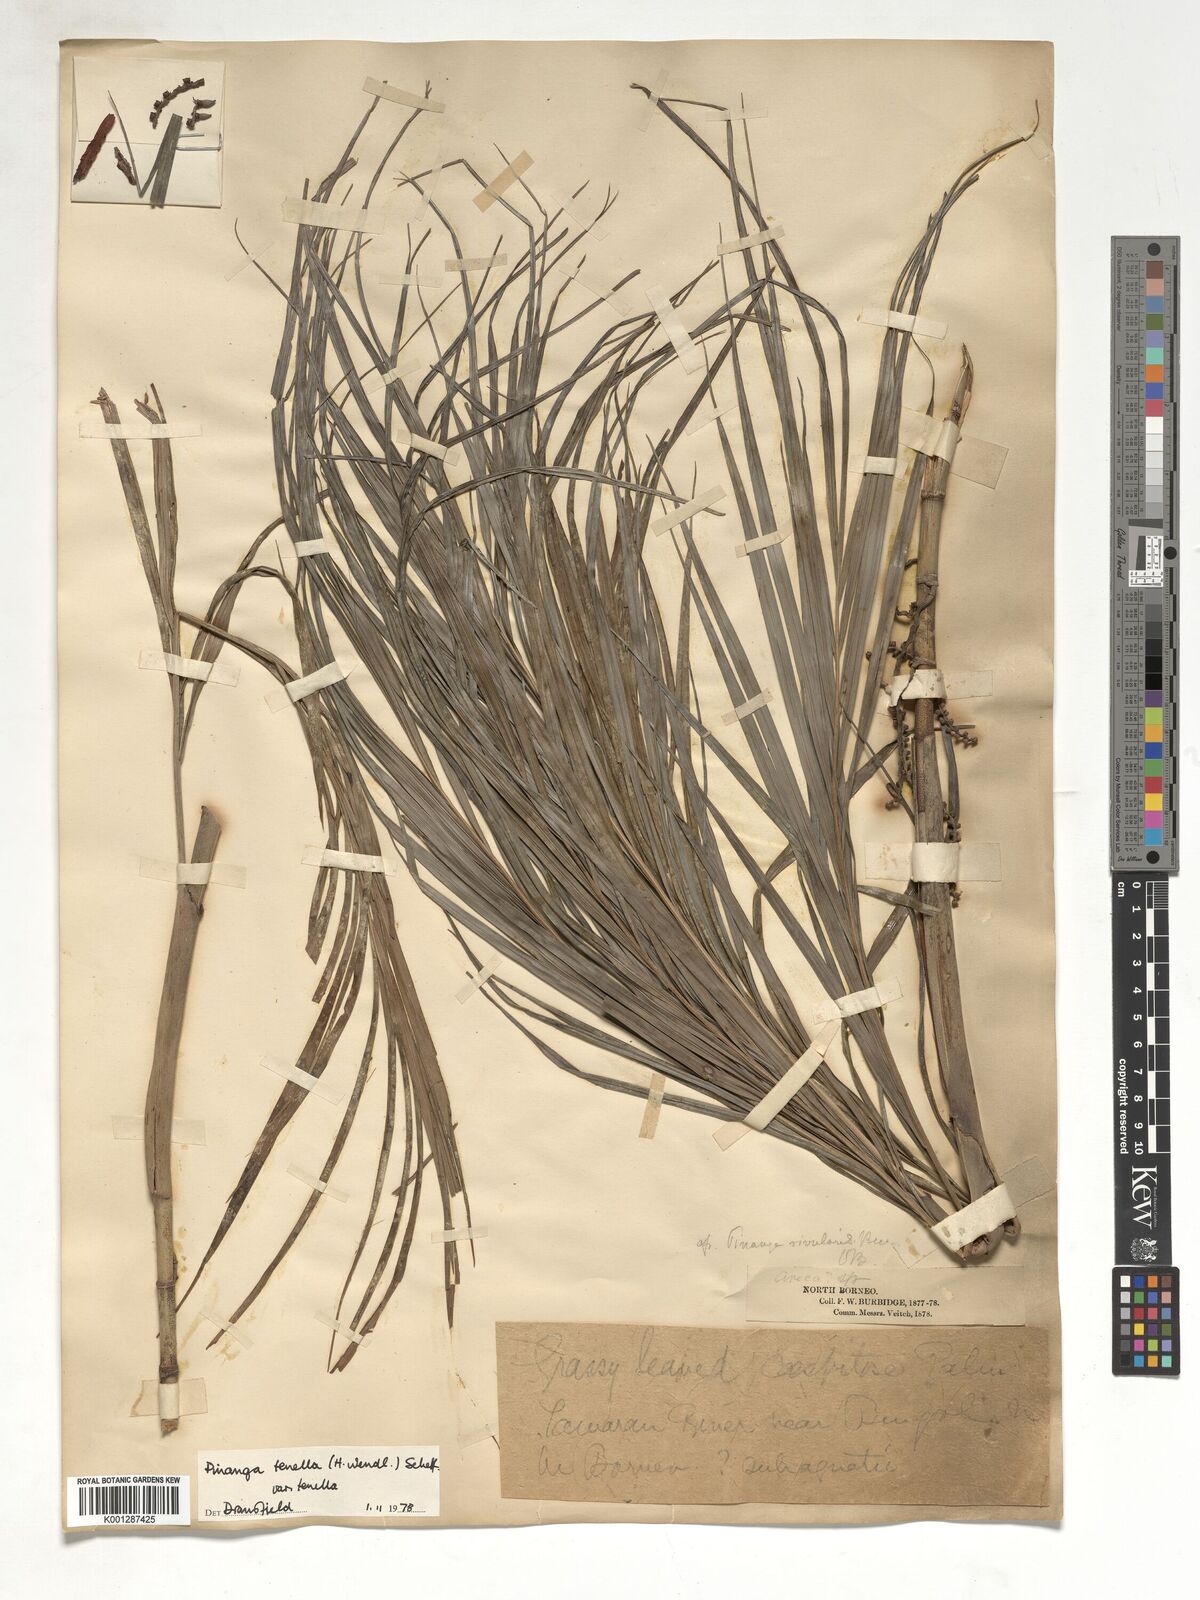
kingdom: Plantae
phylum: Tracheophyta
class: Liliopsida
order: Arecales
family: Arecaceae
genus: Pinanga
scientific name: Pinanga tenella
